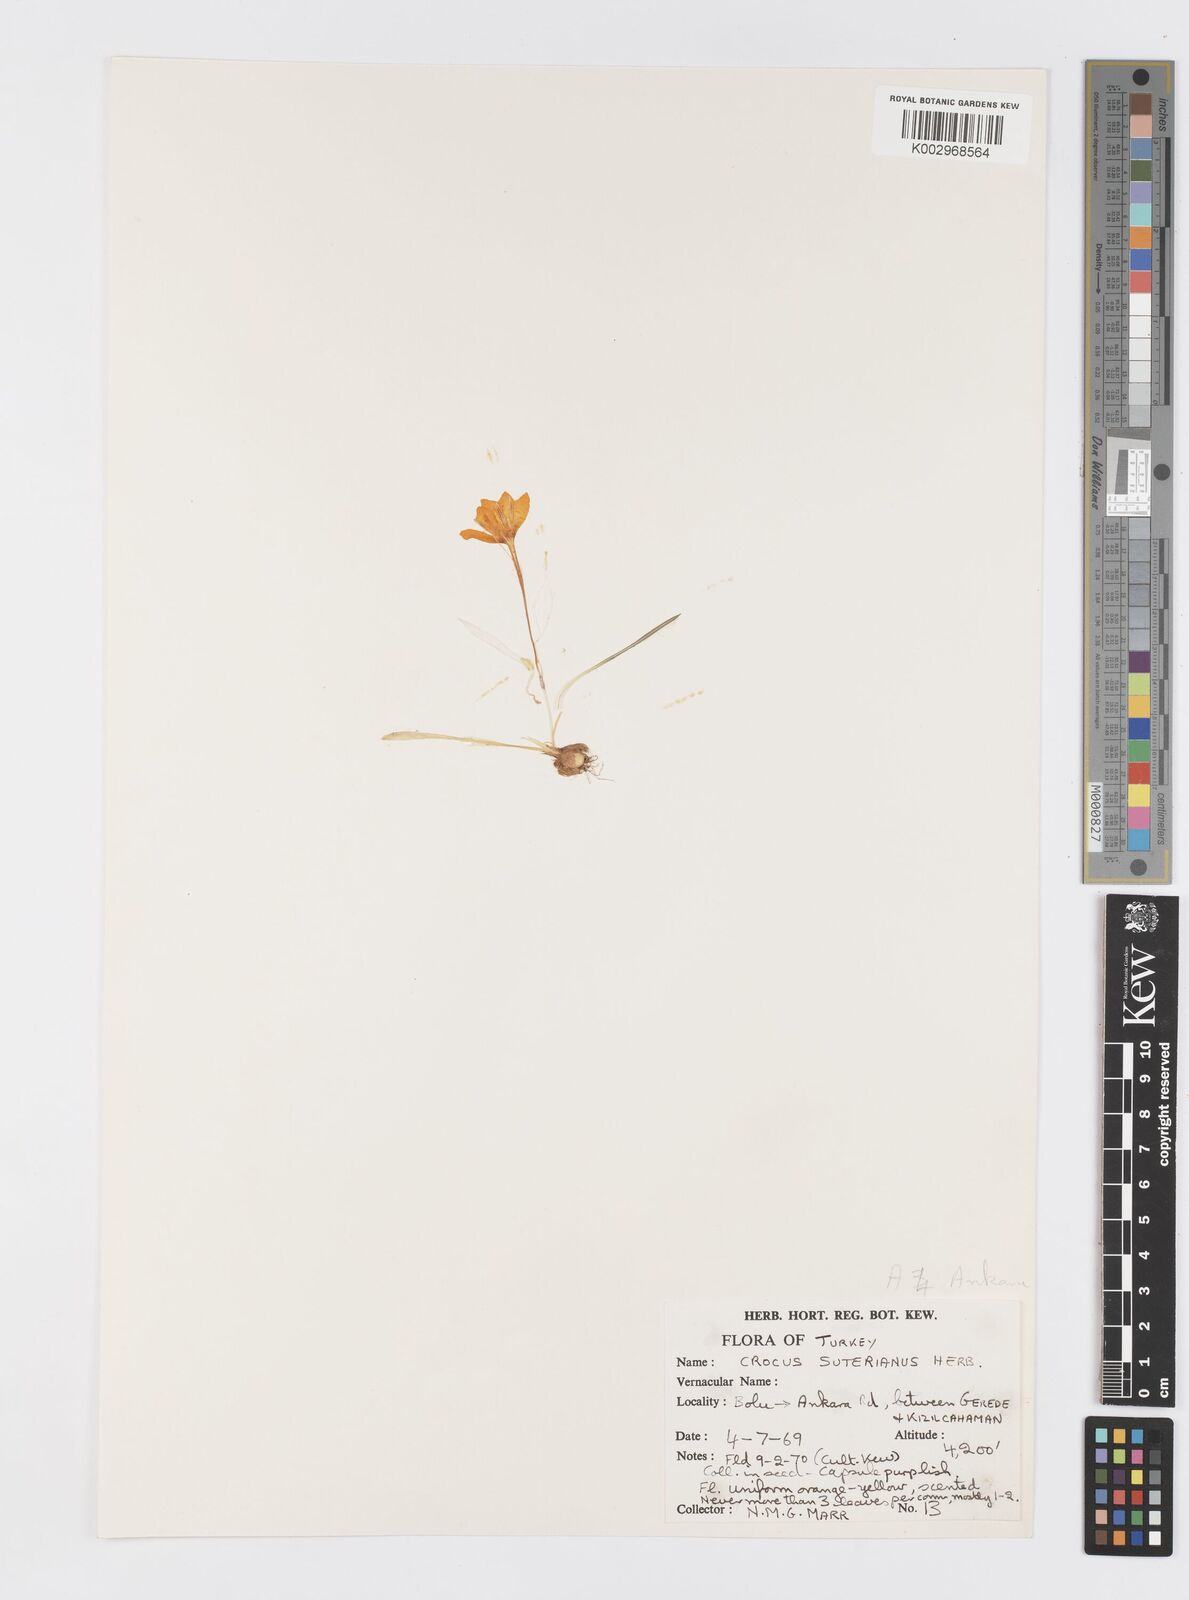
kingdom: Plantae
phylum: Tracheophyta
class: Liliopsida
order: Asparagales
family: Iridaceae
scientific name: Iridaceae
